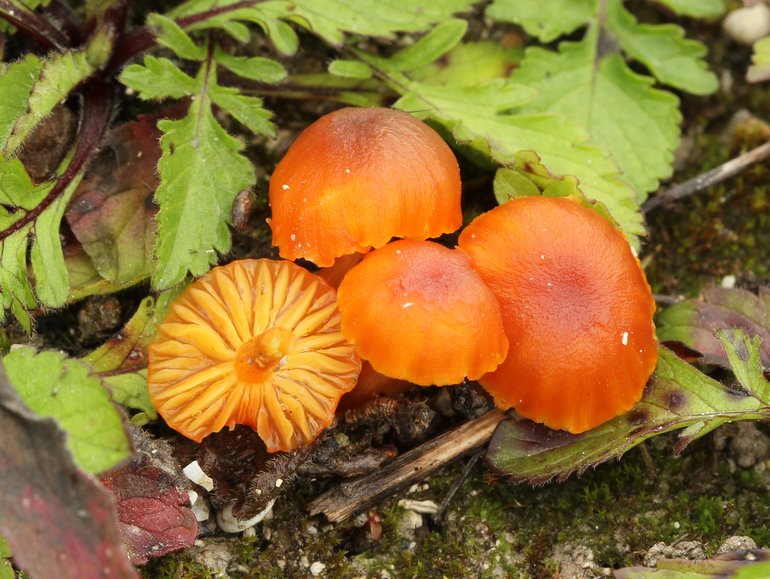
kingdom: Fungi
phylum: Basidiomycota
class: Agaricomycetes
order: Agaricales
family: Hygrophoraceae
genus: Hygrocybe
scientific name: Hygrocybe calciphila
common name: kalk-vokshat
